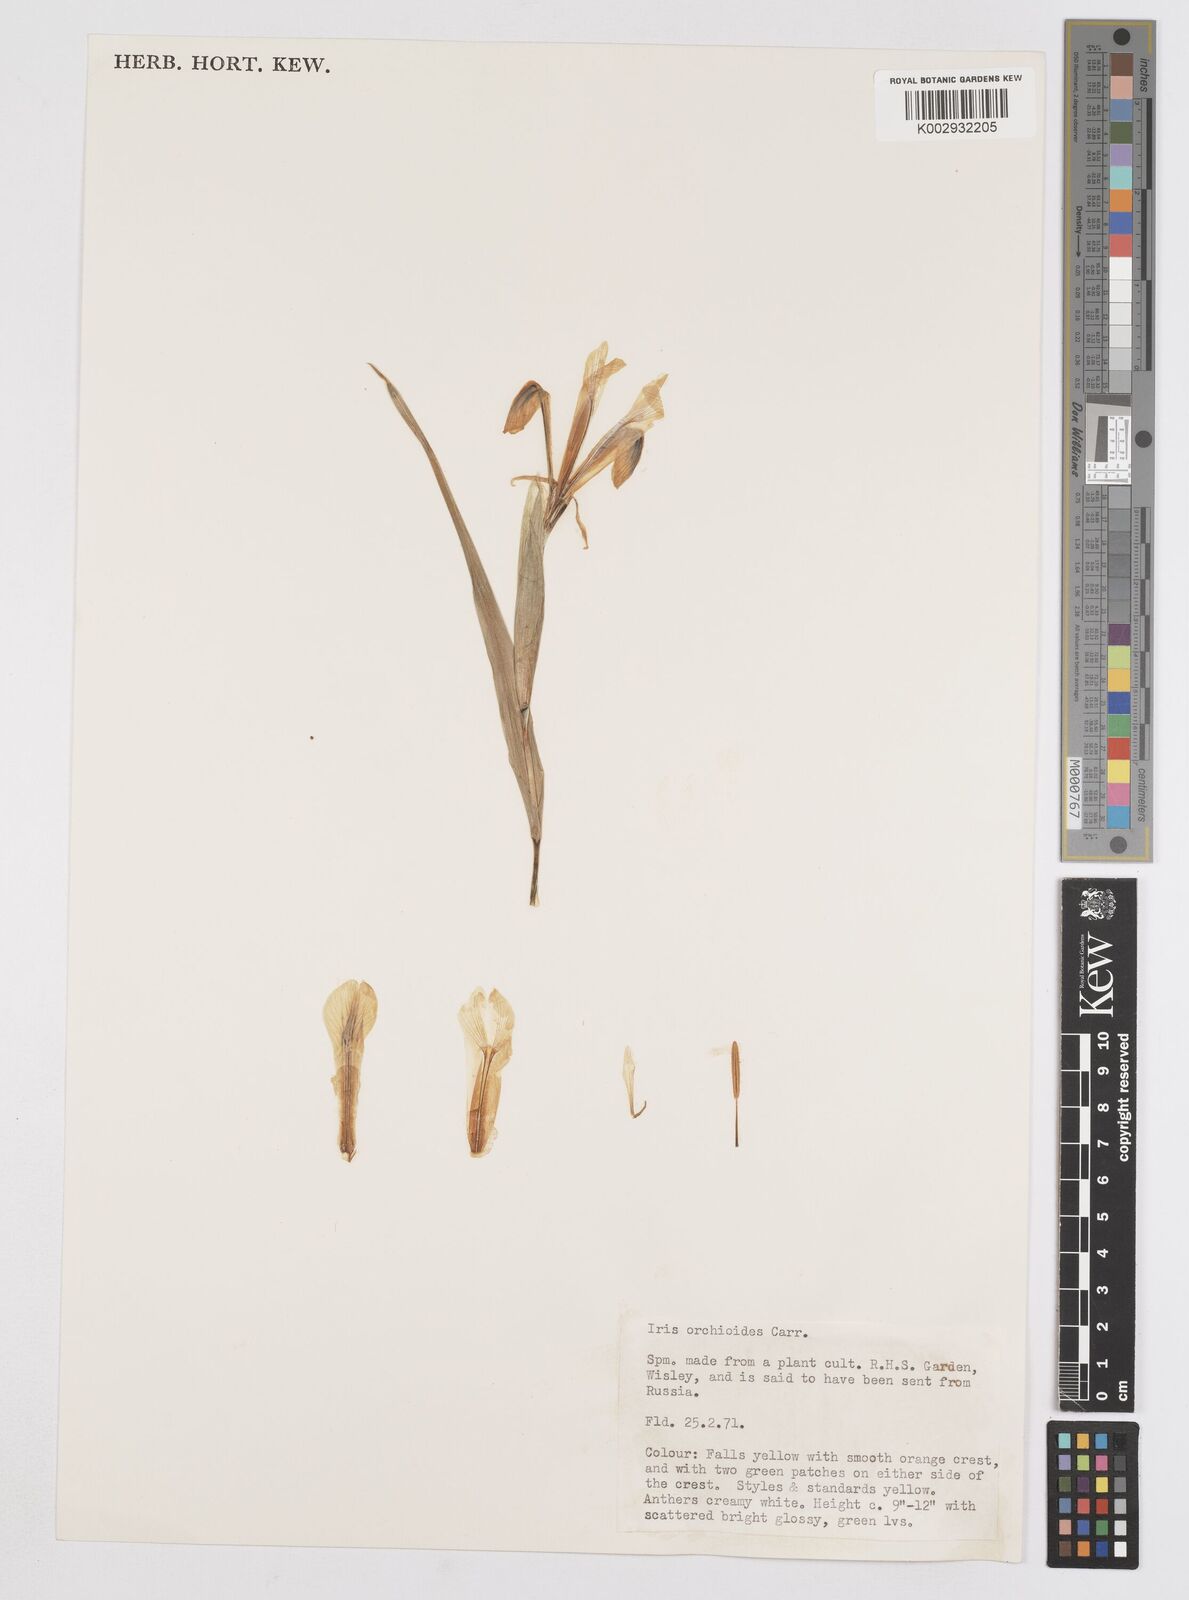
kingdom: Plantae
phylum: Tracheophyta
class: Liliopsida
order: Asparagales
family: Iridaceae
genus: Iris
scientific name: Iris orchioides
